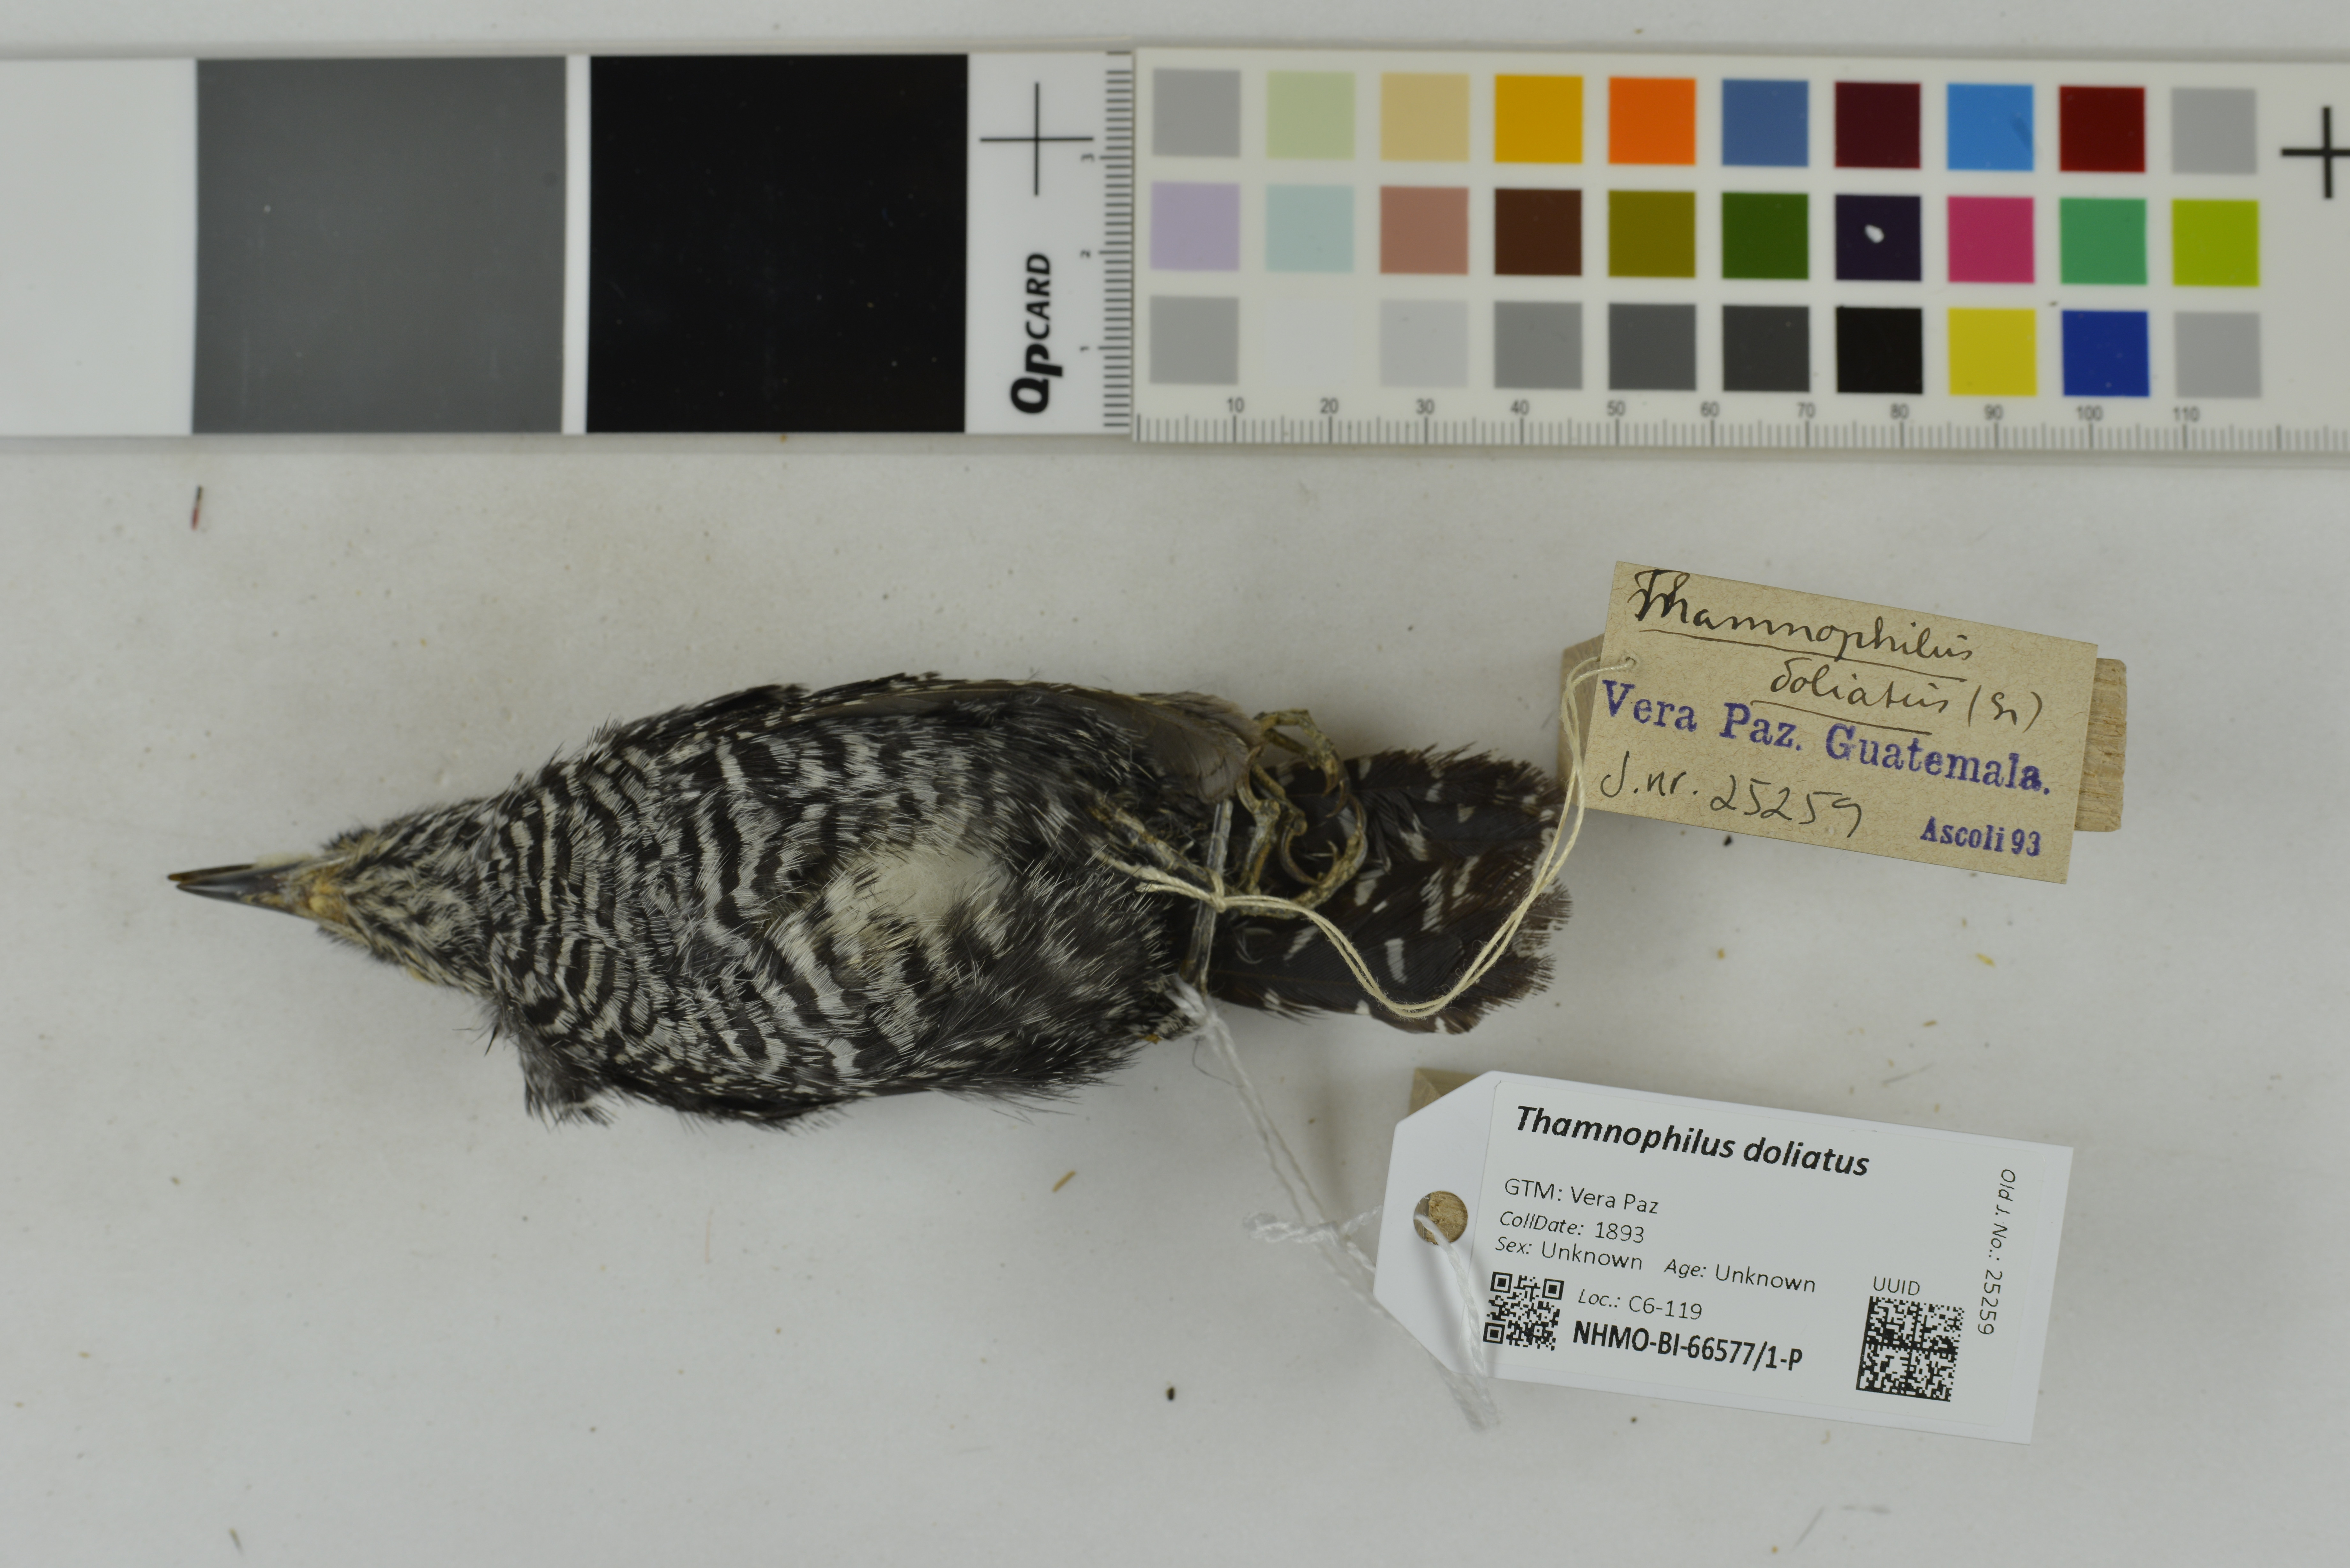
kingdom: Animalia
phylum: Chordata
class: Aves
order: Passeriformes
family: Thamnophilidae
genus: Thamnophilus
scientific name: Thamnophilus doliatus
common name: Barred antshrike
